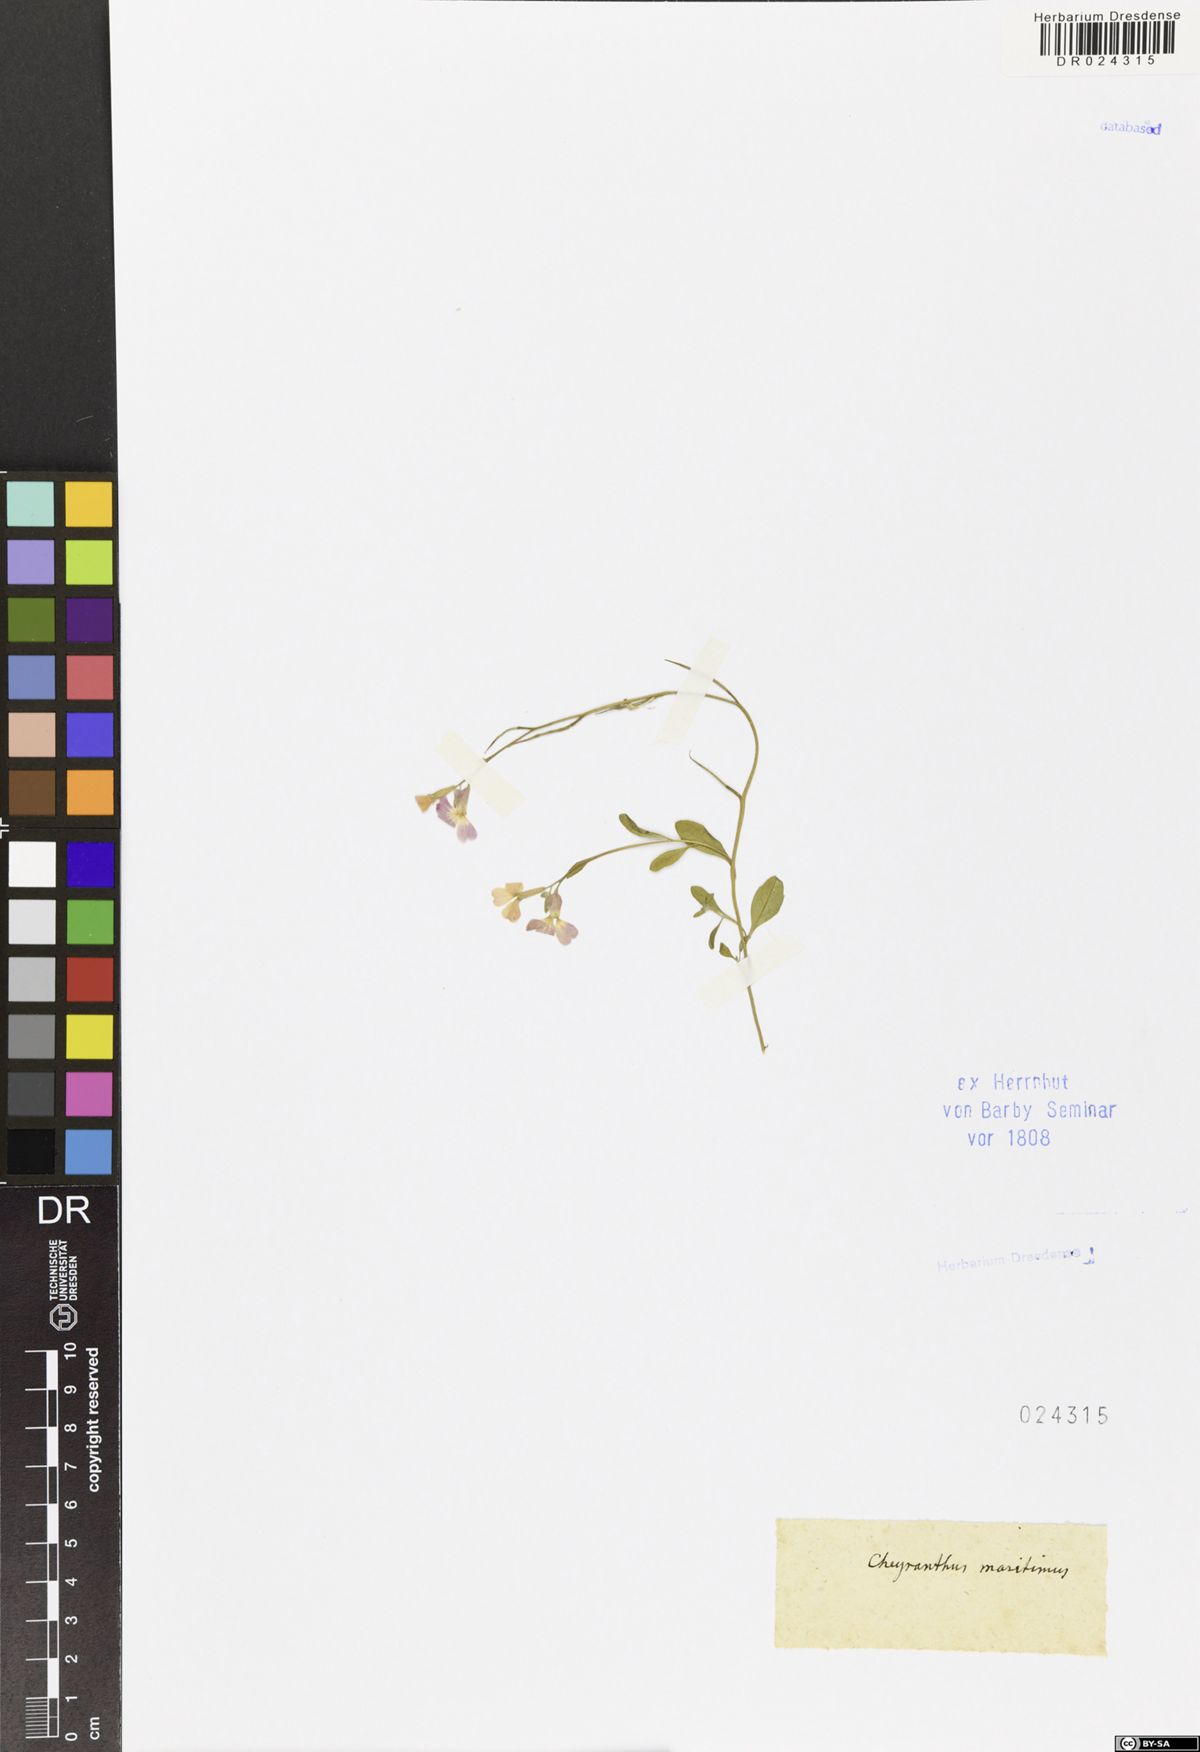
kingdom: Plantae
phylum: Tracheophyta
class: Magnoliopsida
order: Brassicales
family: Brassicaceae
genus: Malcolmia
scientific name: Malcolmia maritima
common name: Virginia stock
